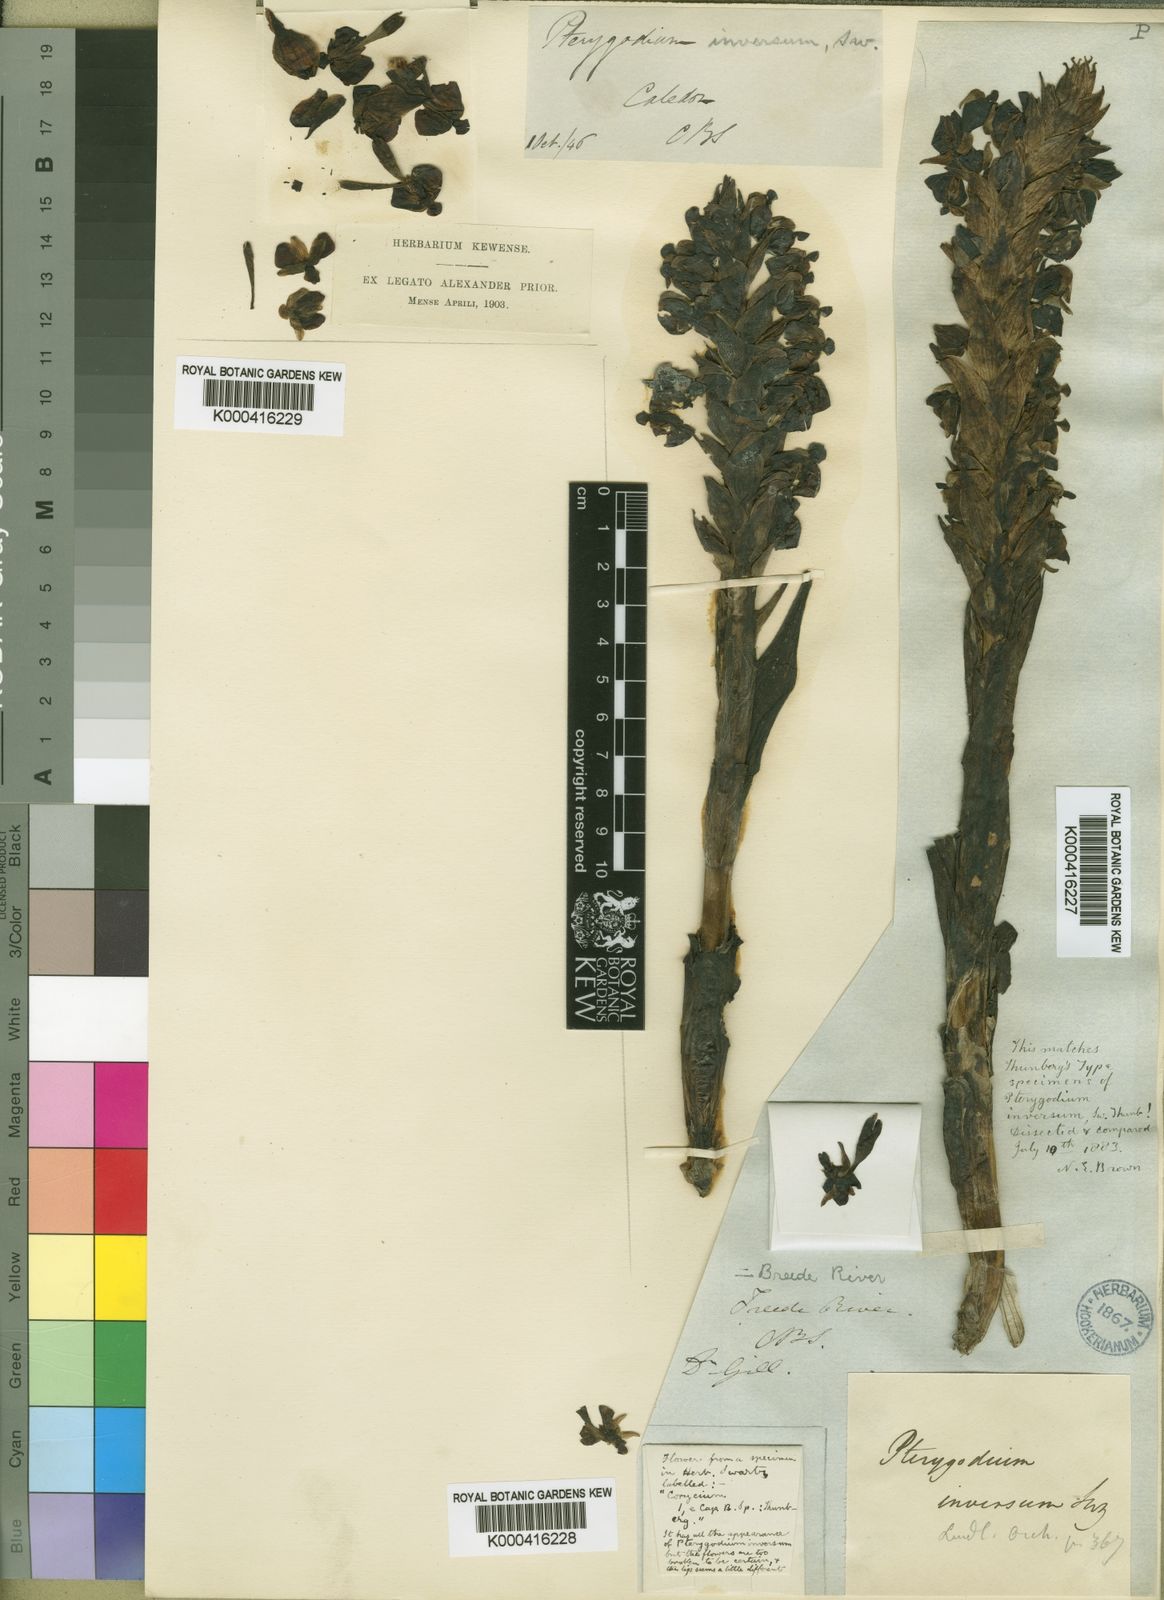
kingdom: Plantae
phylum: Tracheophyta
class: Liliopsida
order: Asparagales
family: Orchidaceae
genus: Pterygodium
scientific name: Pterygodium inversum
